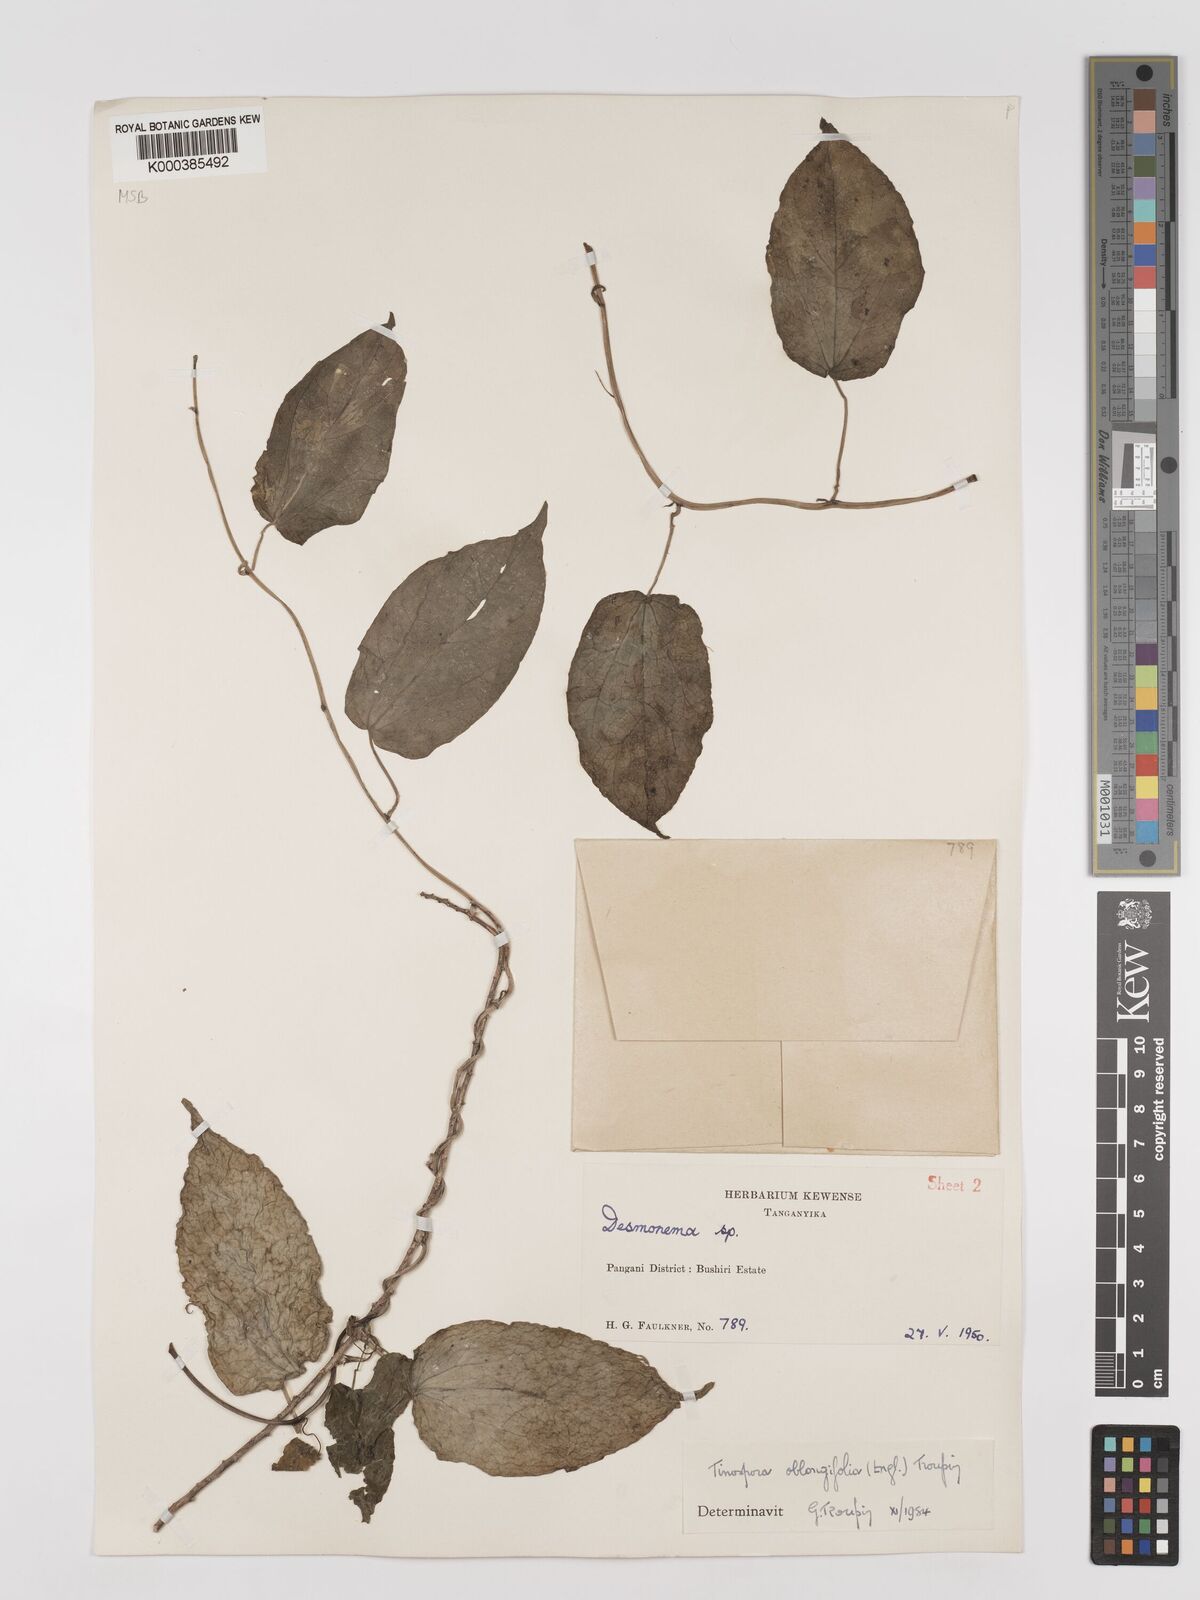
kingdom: Plantae
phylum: Tracheophyta
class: Magnoliopsida
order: Ranunculales
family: Menispermaceae
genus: Tinospora
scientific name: Tinospora oblongifolia
